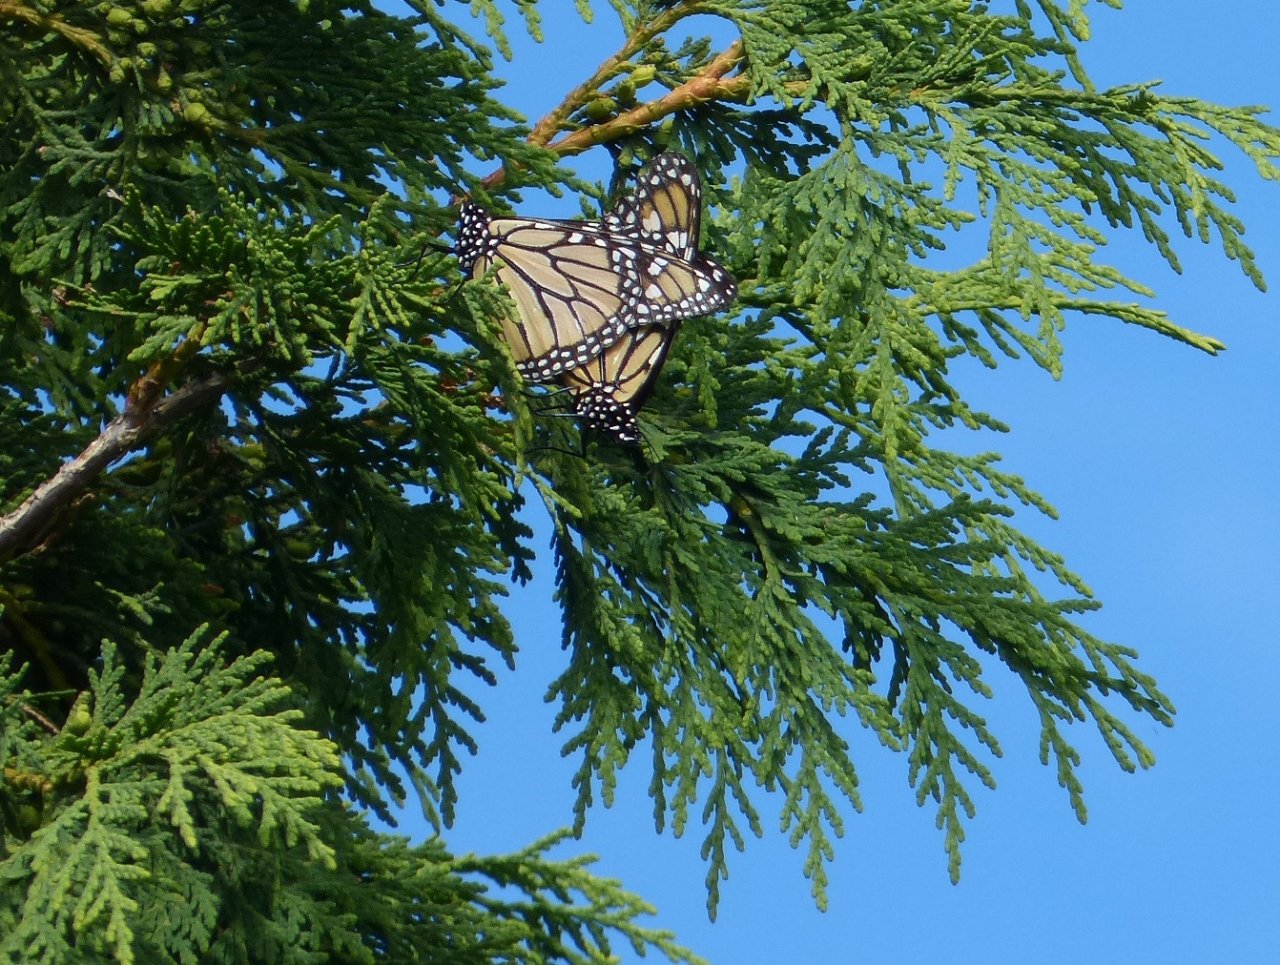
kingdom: Animalia
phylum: Arthropoda
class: Insecta
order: Lepidoptera
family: Nymphalidae
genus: Danaus
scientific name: Danaus plexippus
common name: Monarch
